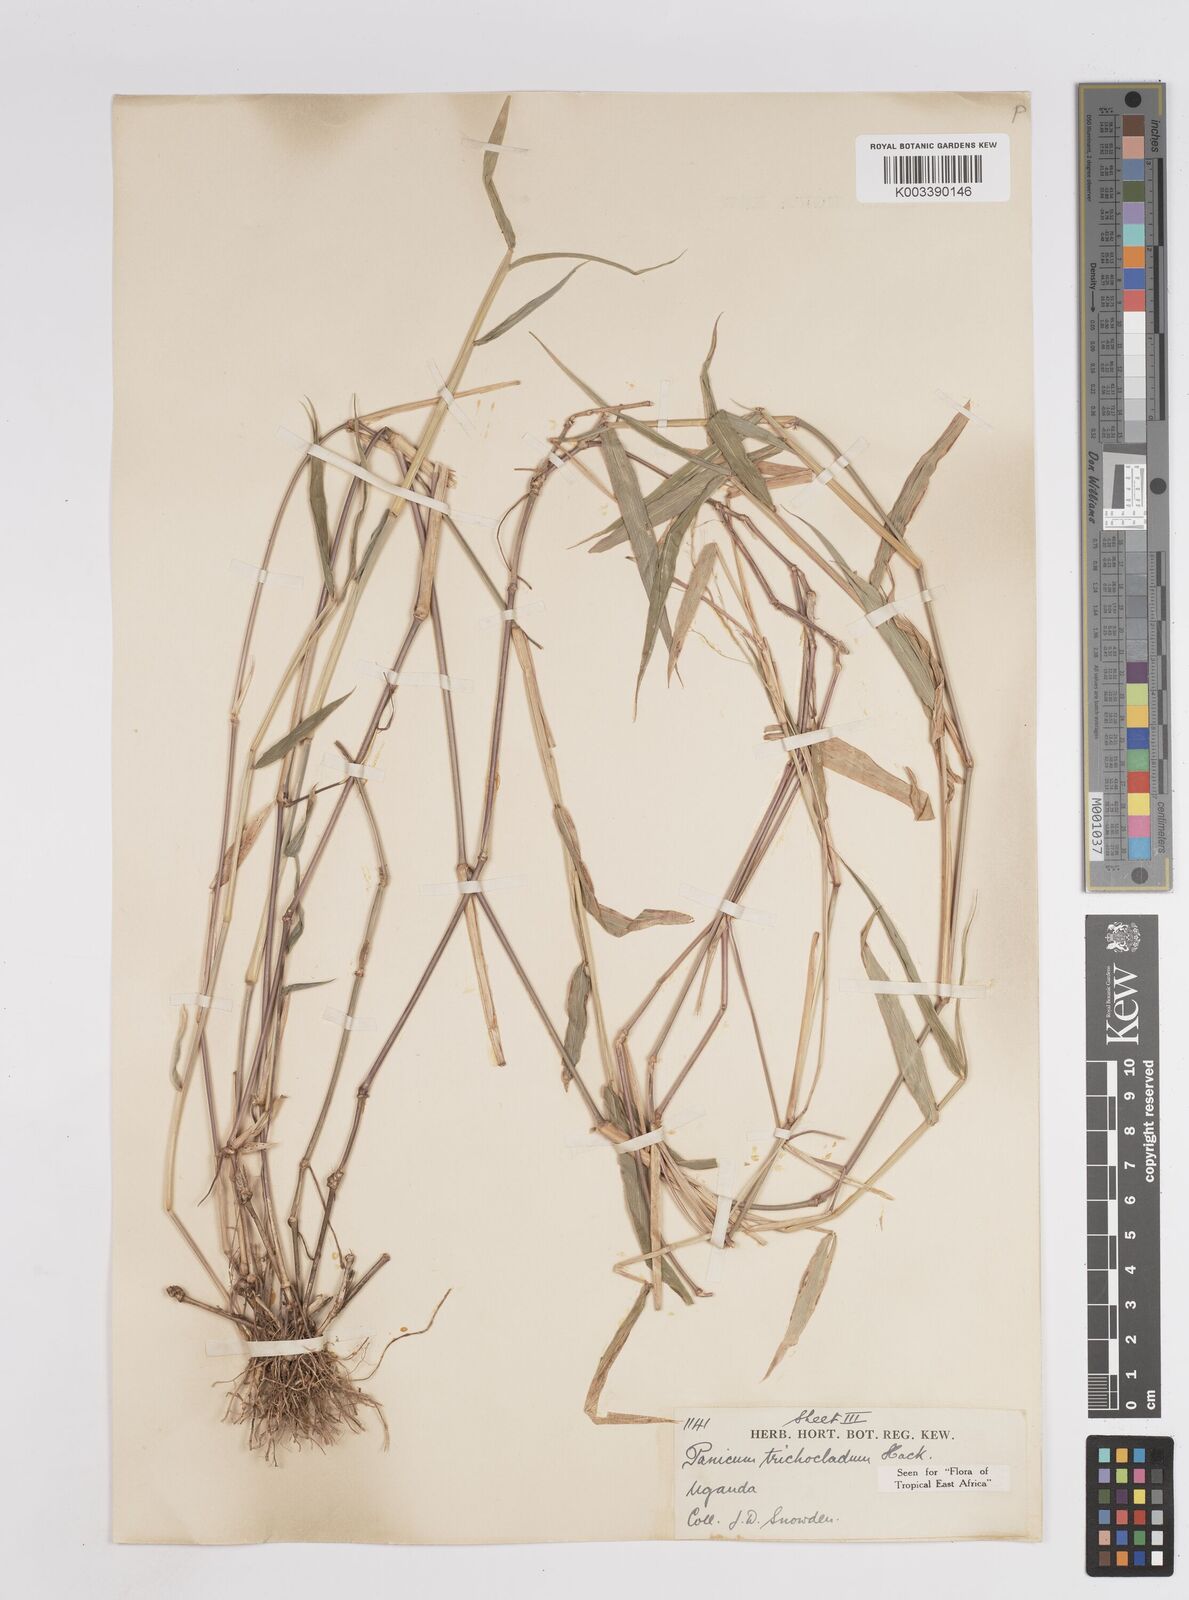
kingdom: Plantae
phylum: Tracheophyta
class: Liliopsida
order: Poales
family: Poaceae
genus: Megathyrsus
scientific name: Megathyrsus maximus
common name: Guineagrass
